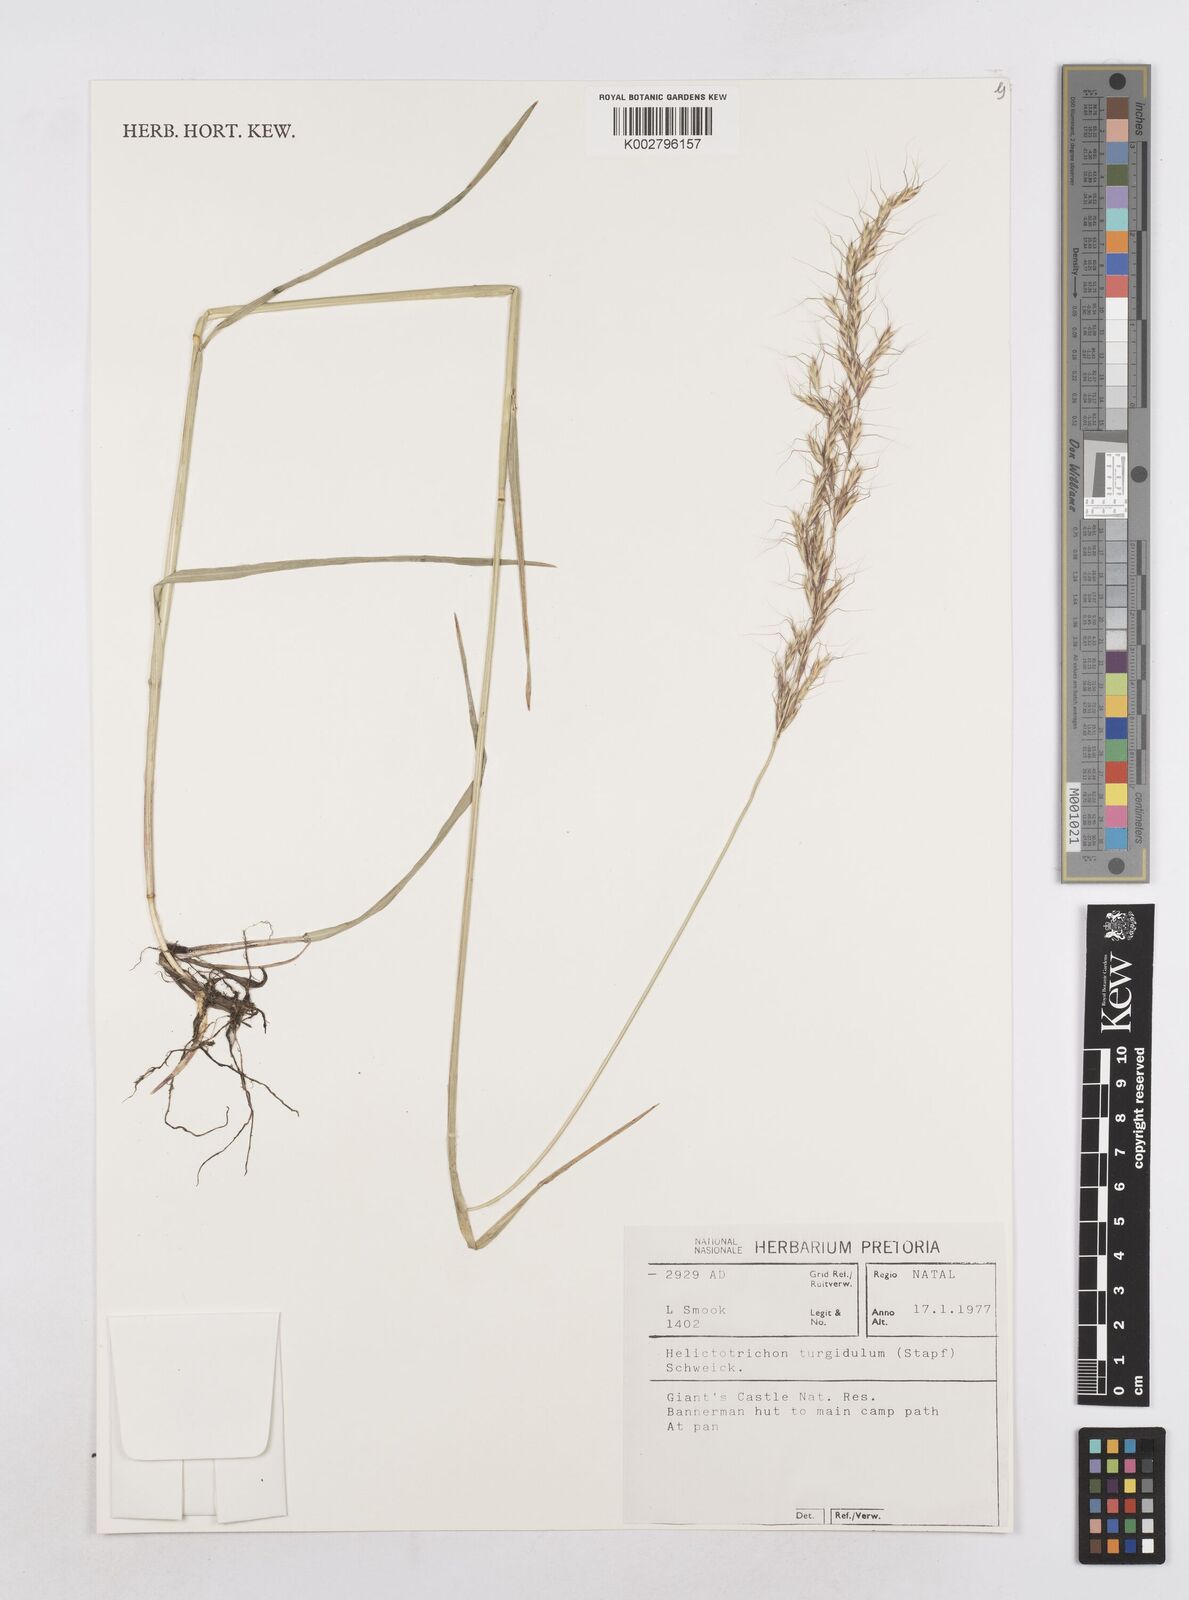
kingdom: Plantae
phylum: Tracheophyta
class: Liliopsida
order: Poales
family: Poaceae
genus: Trisetopsis
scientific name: Trisetopsis imberbis
